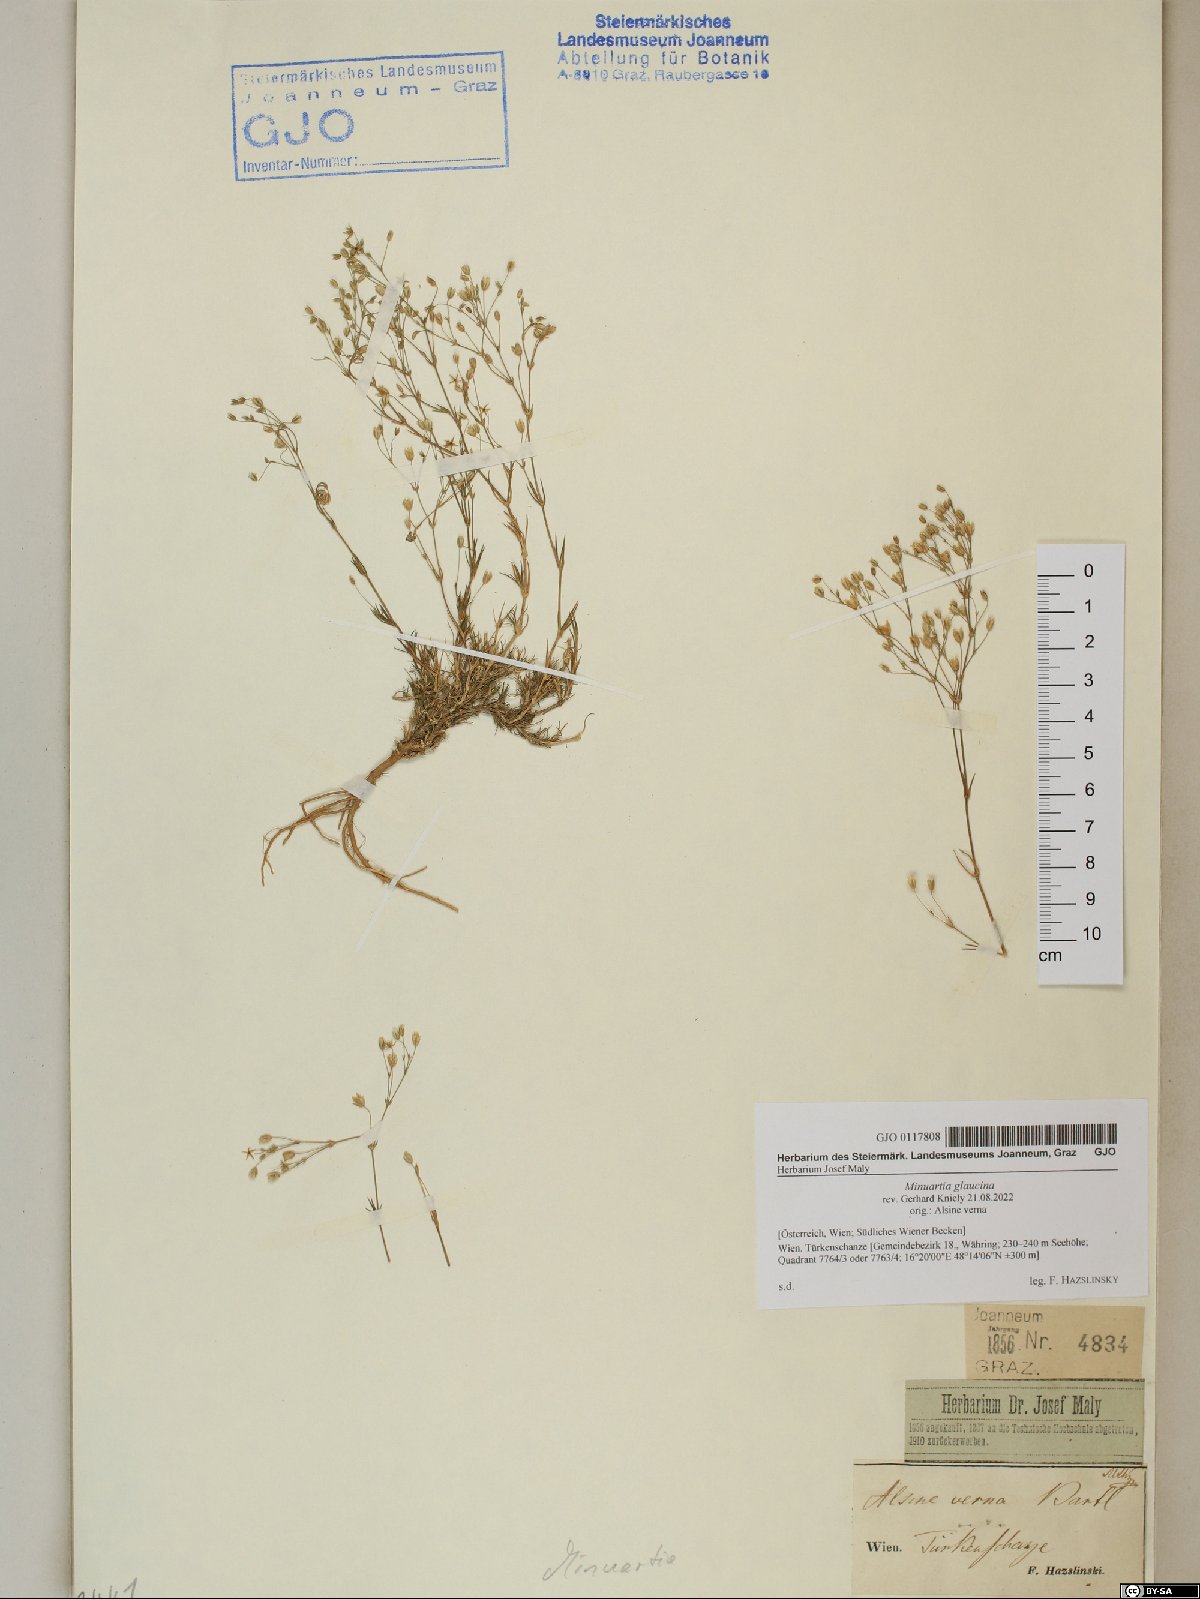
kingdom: Plantae
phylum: Tracheophyta
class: Magnoliopsida
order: Caryophyllales
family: Caryophyllaceae
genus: Sabulina
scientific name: Sabulina glaucina
